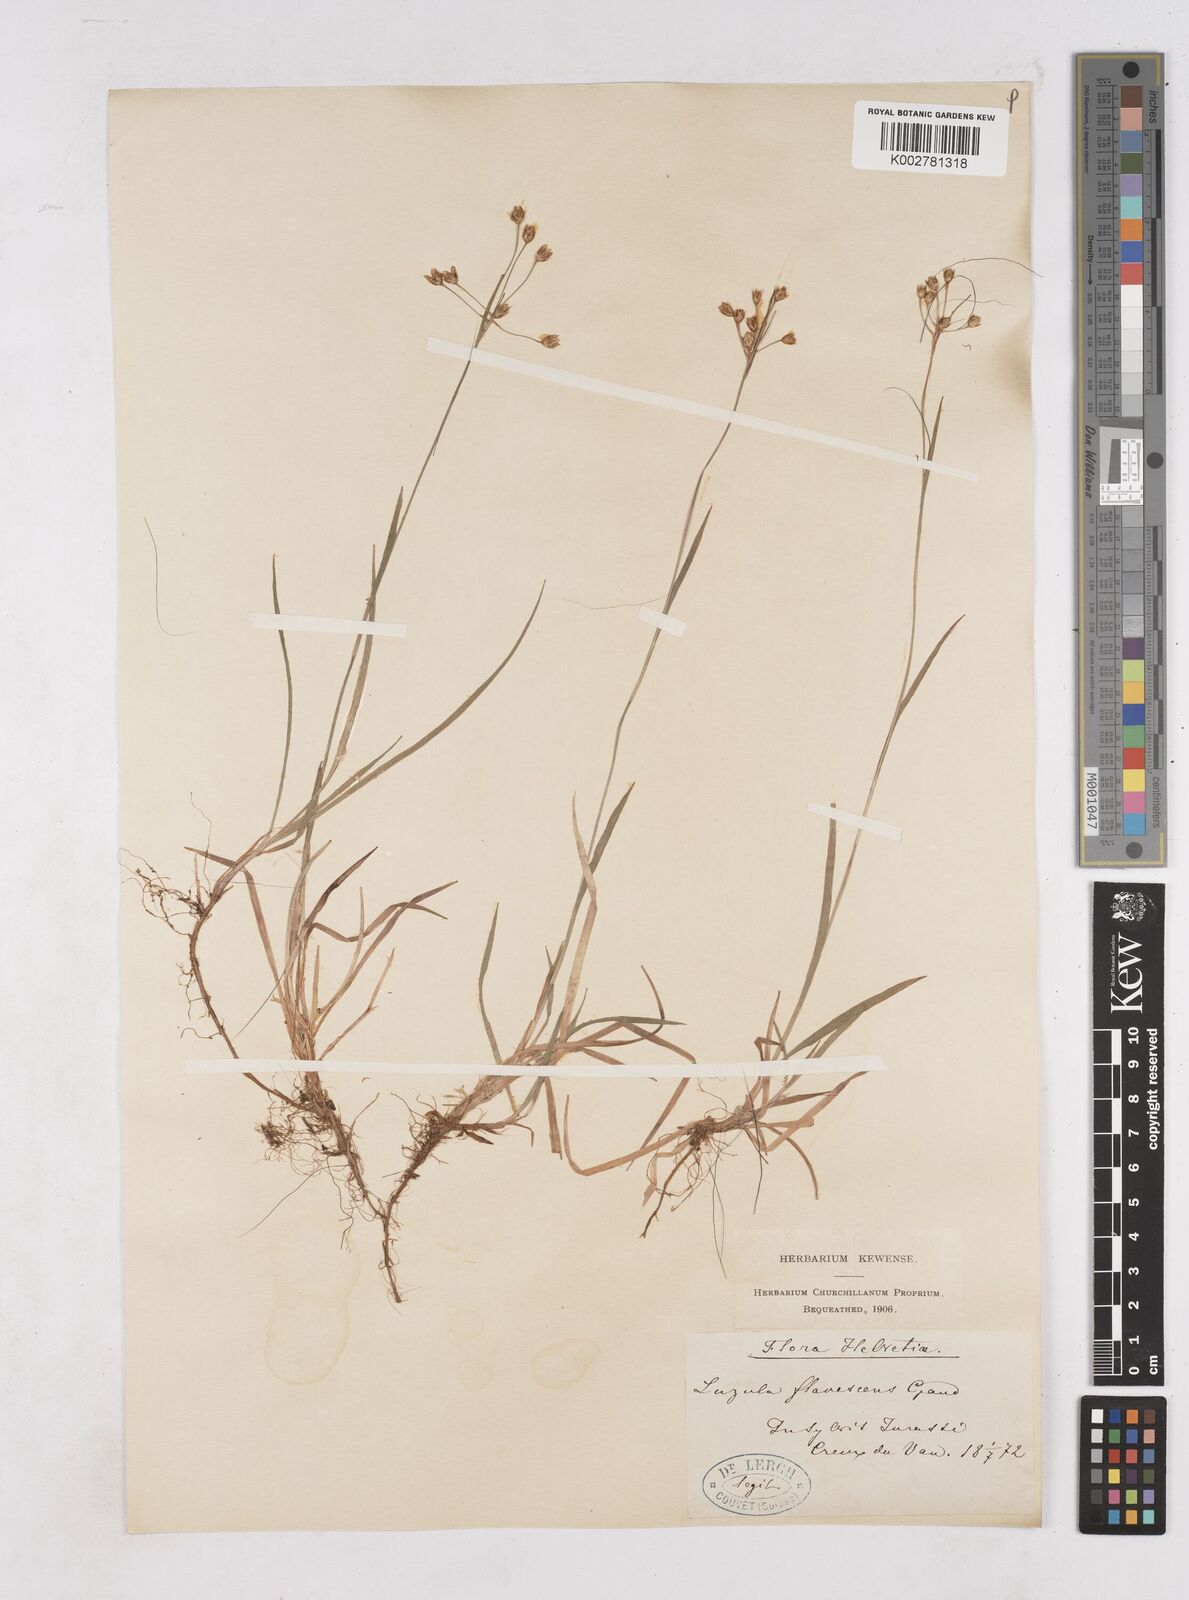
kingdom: Plantae
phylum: Tracheophyta
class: Liliopsida
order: Poales
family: Juncaceae
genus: Luzula
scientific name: Luzula luzulina
